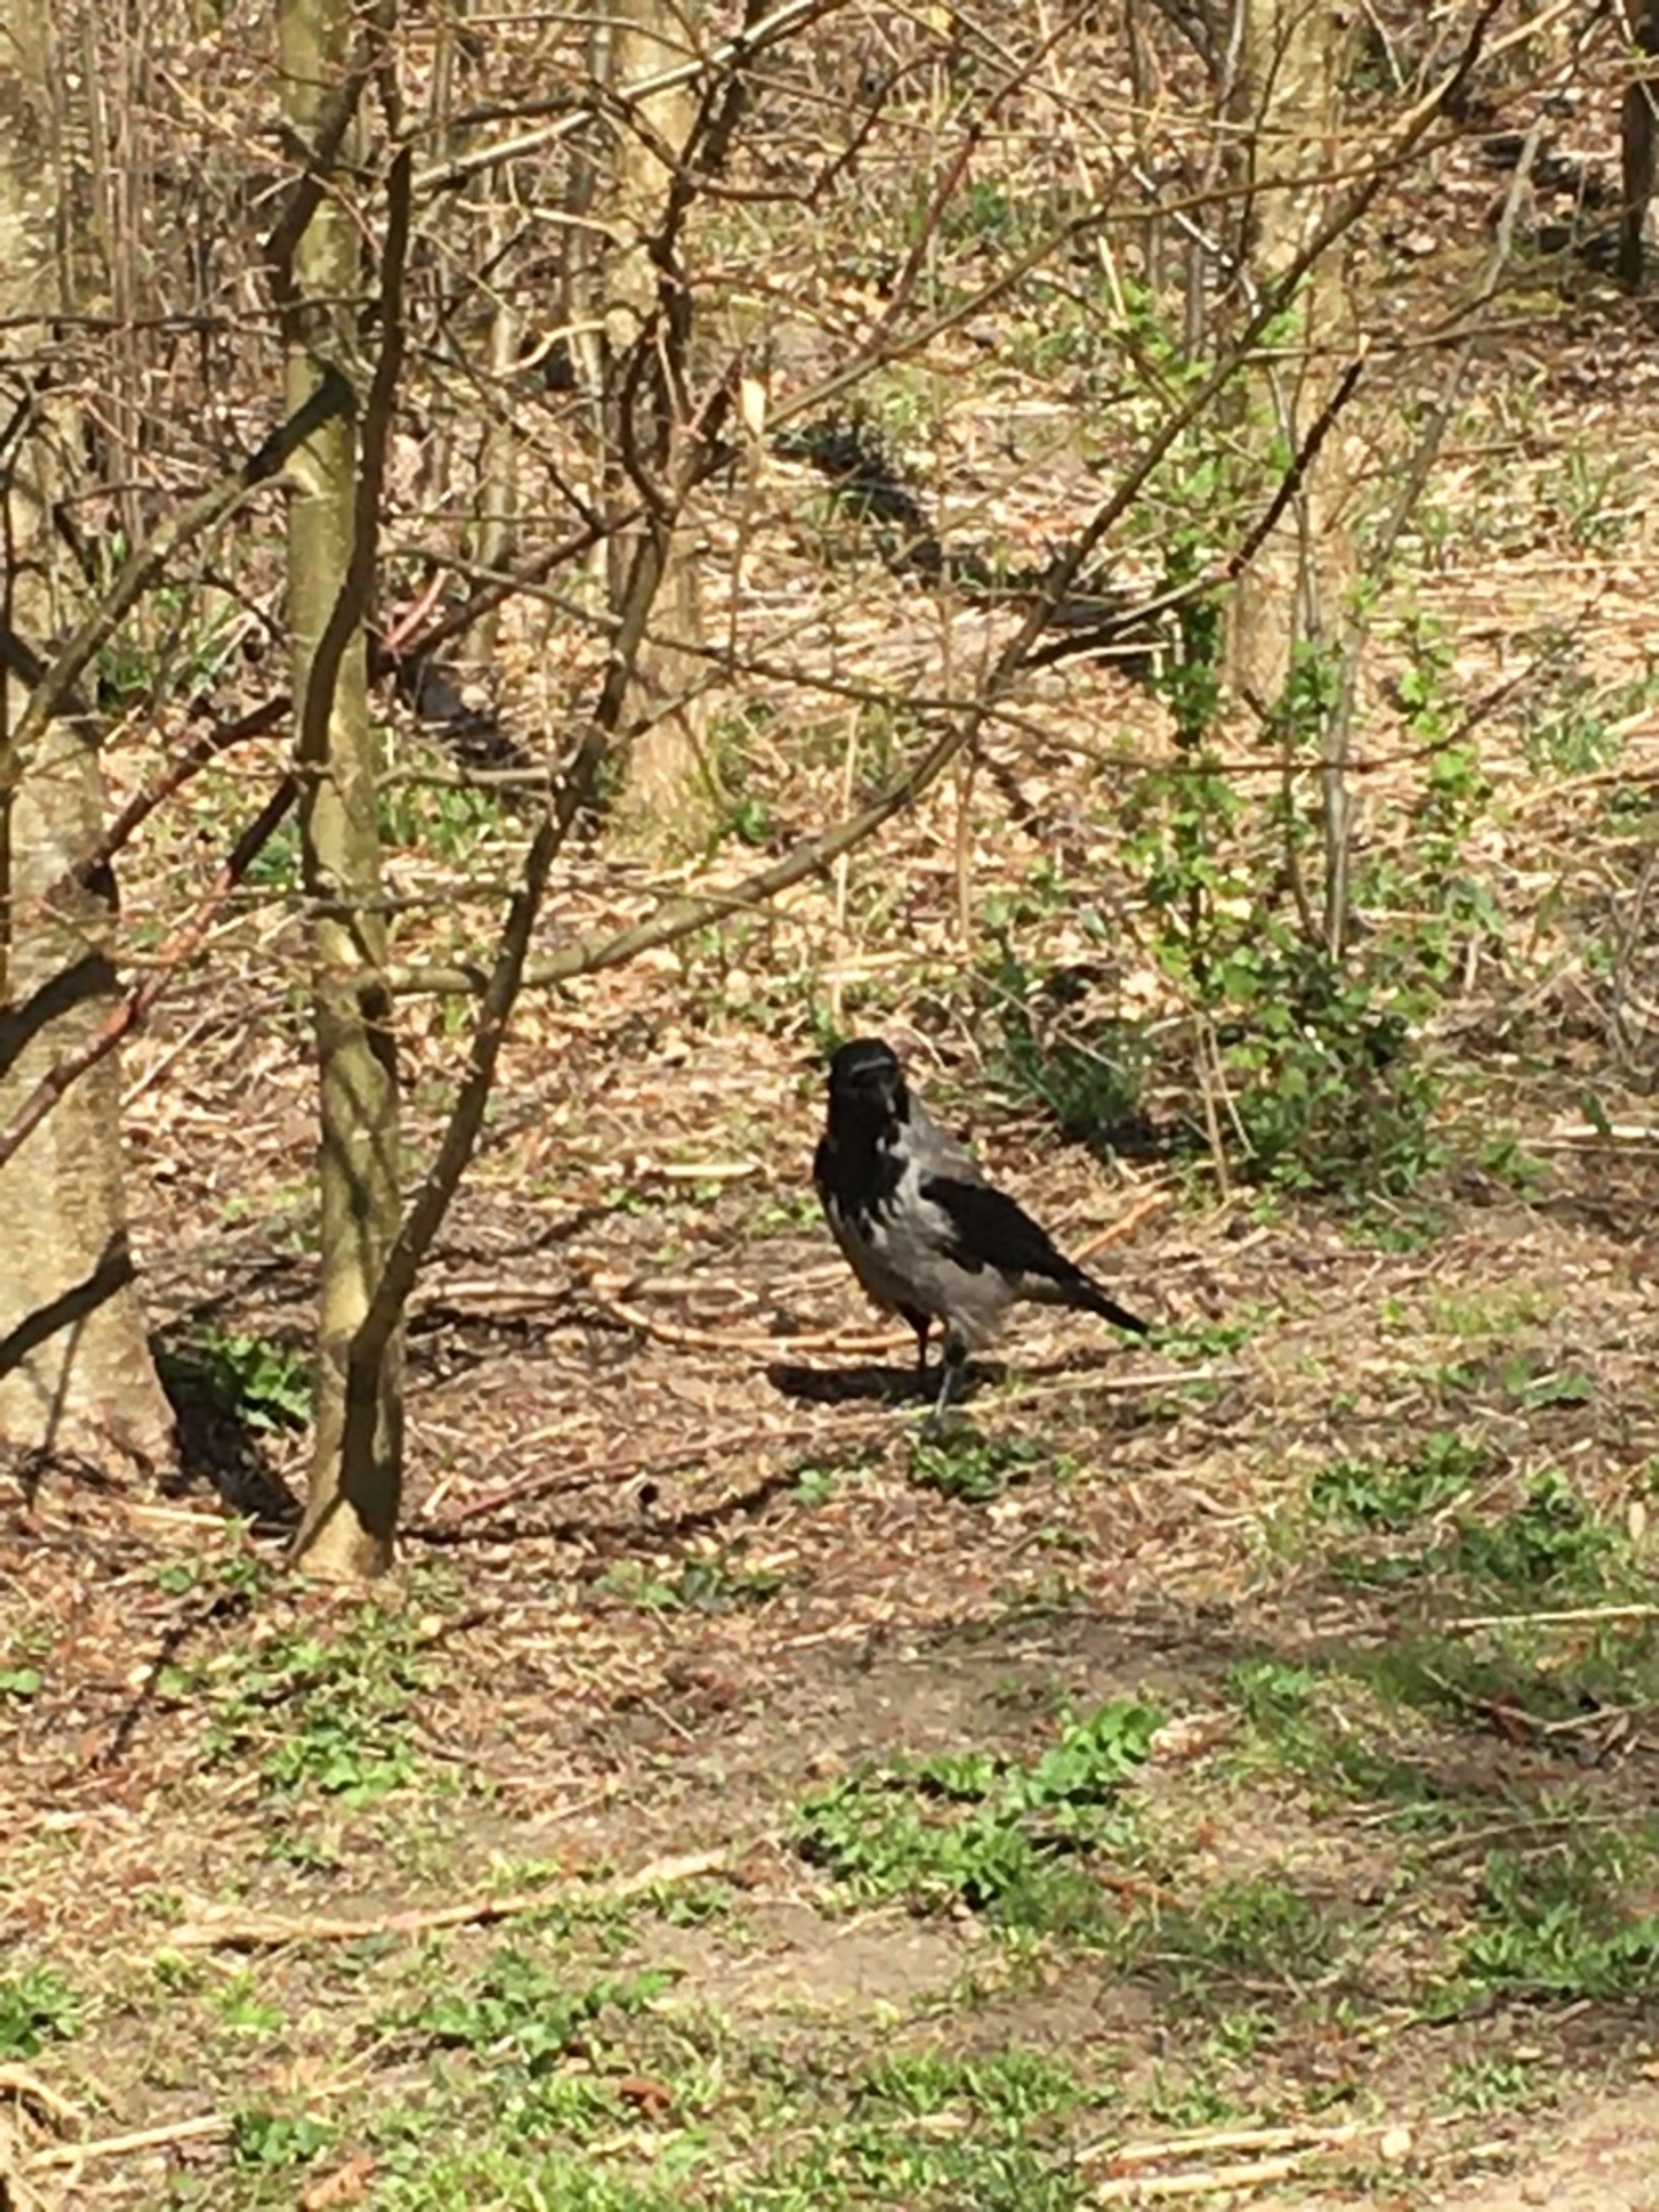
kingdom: Animalia
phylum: Chordata
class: Aves
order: Passeriformes
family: Corvidae
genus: Corvus
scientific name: Corvus cornix
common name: Gråkrage
